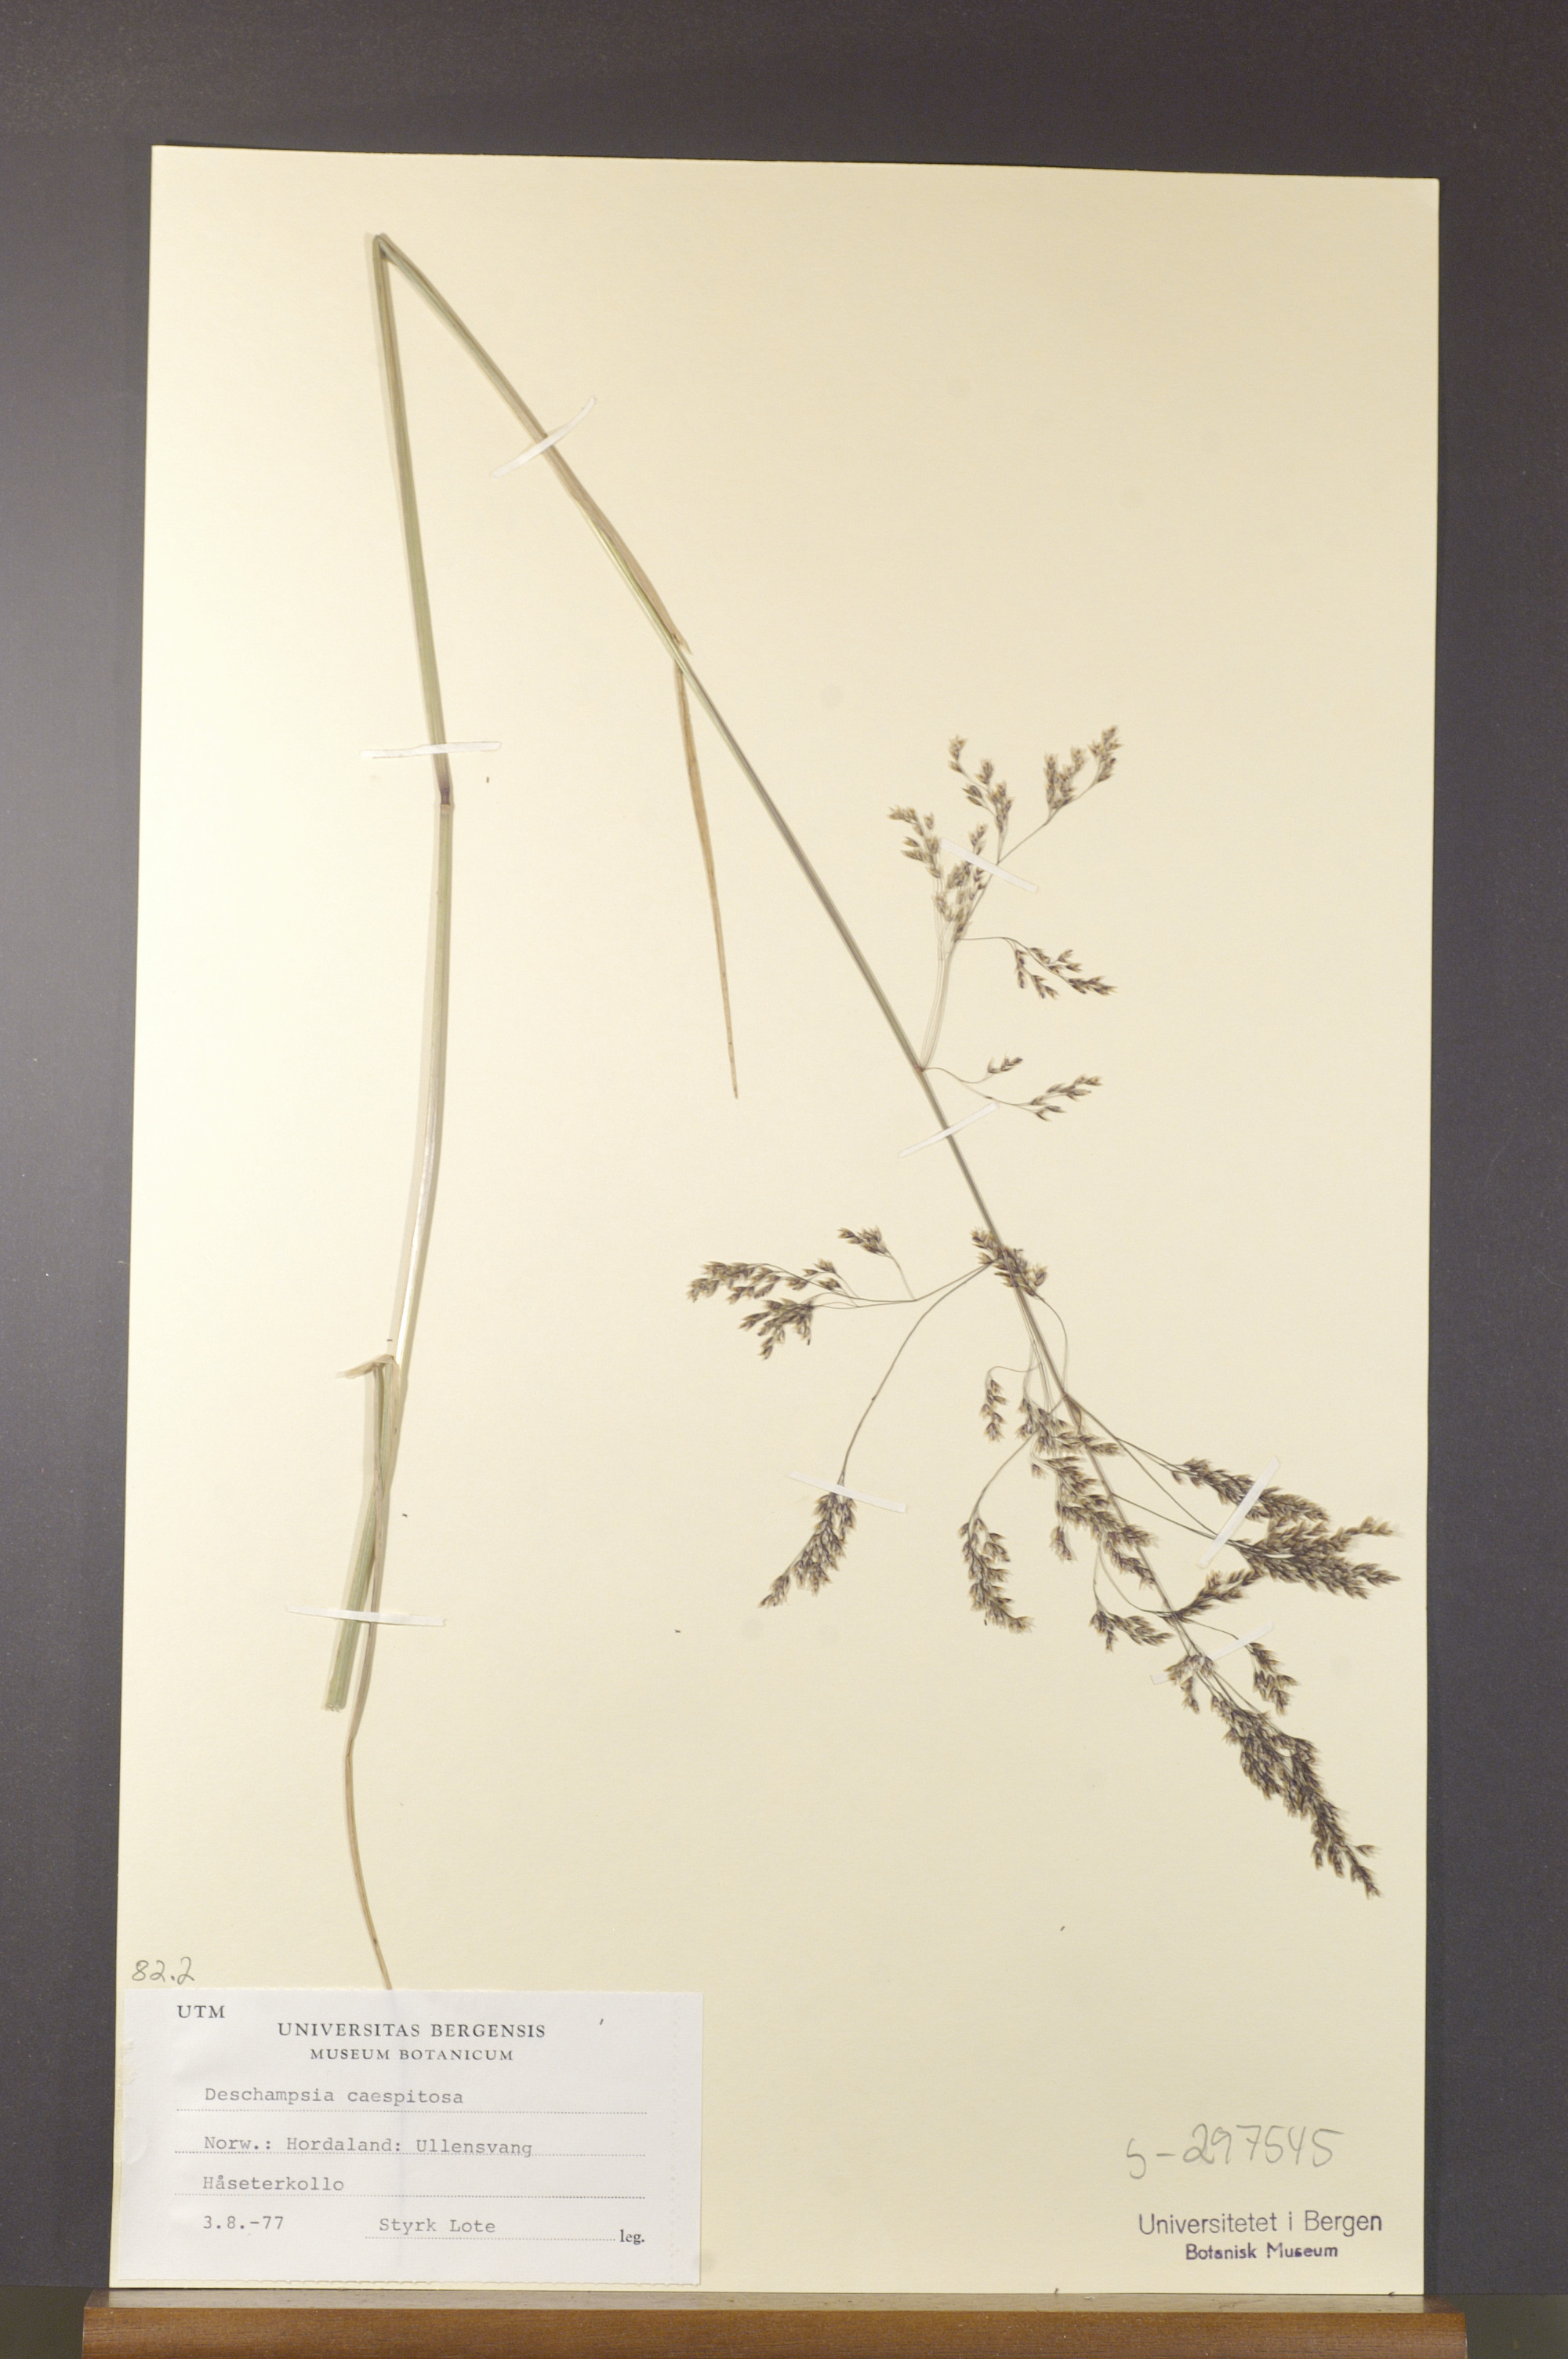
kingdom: Plantae
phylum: Tracheophyta
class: Liliopsida
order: Poales
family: Poaceae
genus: Deschampsia
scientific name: Deschampsia cespitosa
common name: Tufted hair-grass
